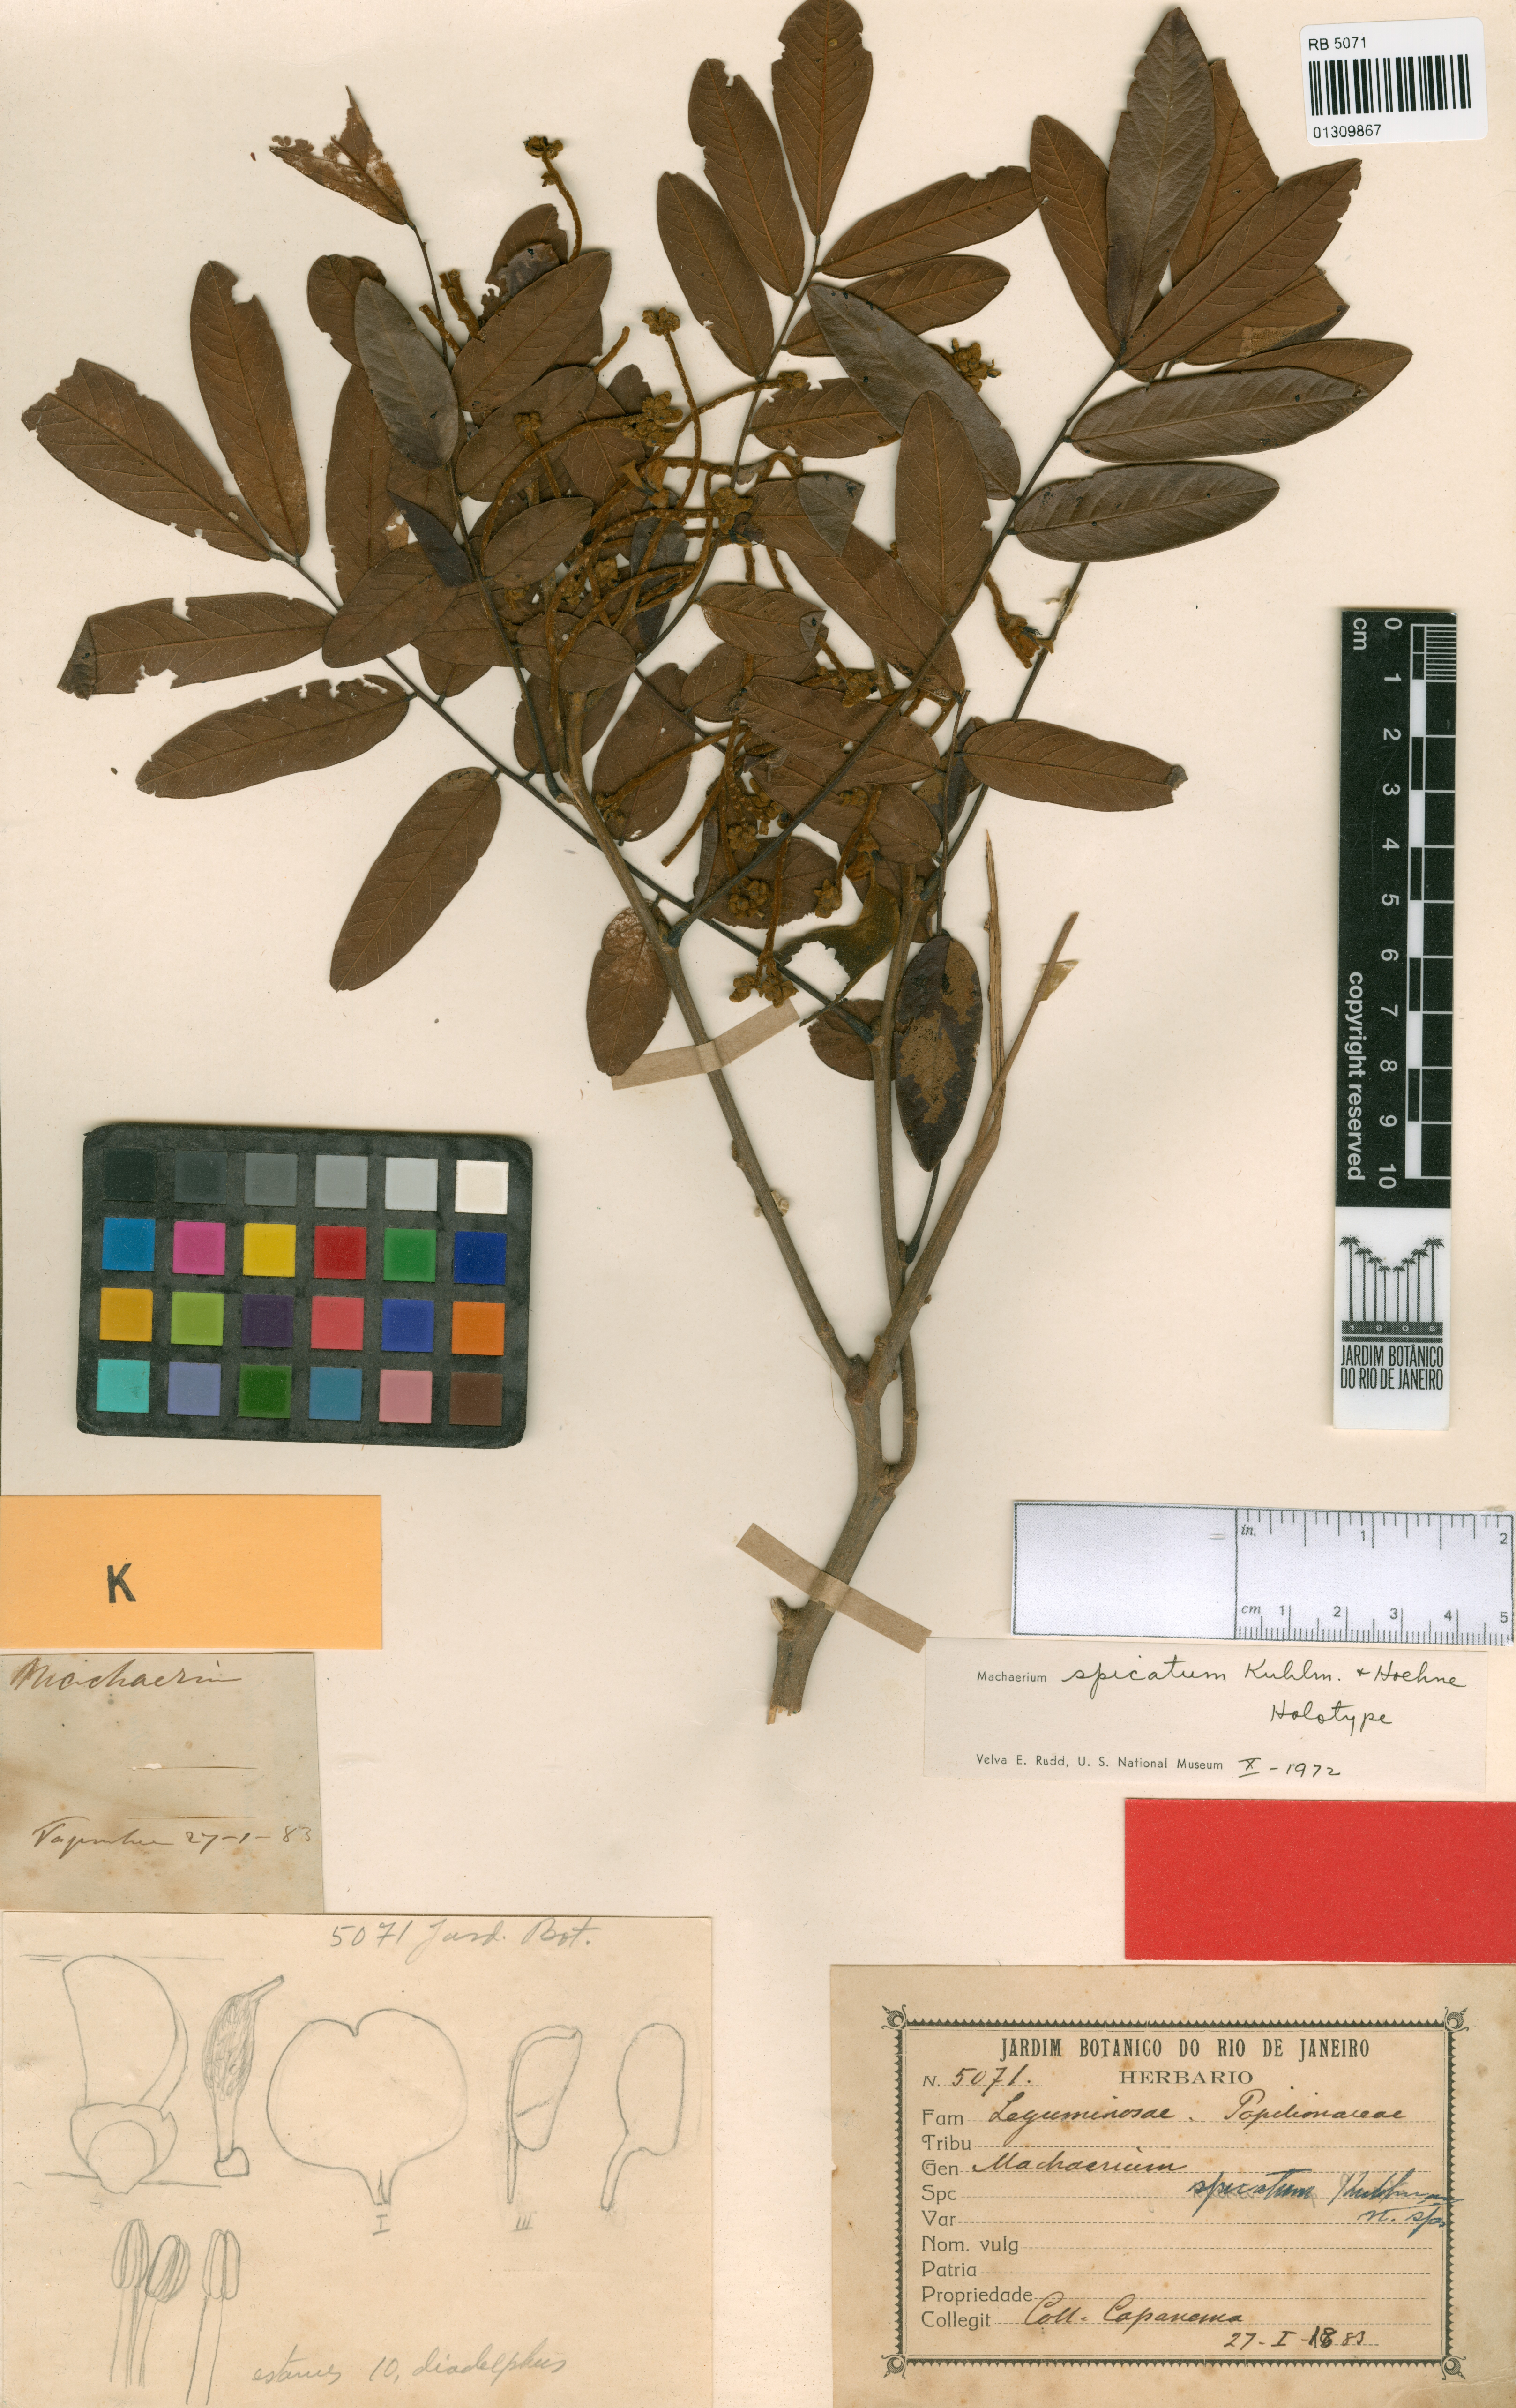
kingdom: Plantae
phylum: Tracheophyta
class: Magnoliopsida
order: Fabales
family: Fabaceae
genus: Machaerium
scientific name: Machaerium spicatum
